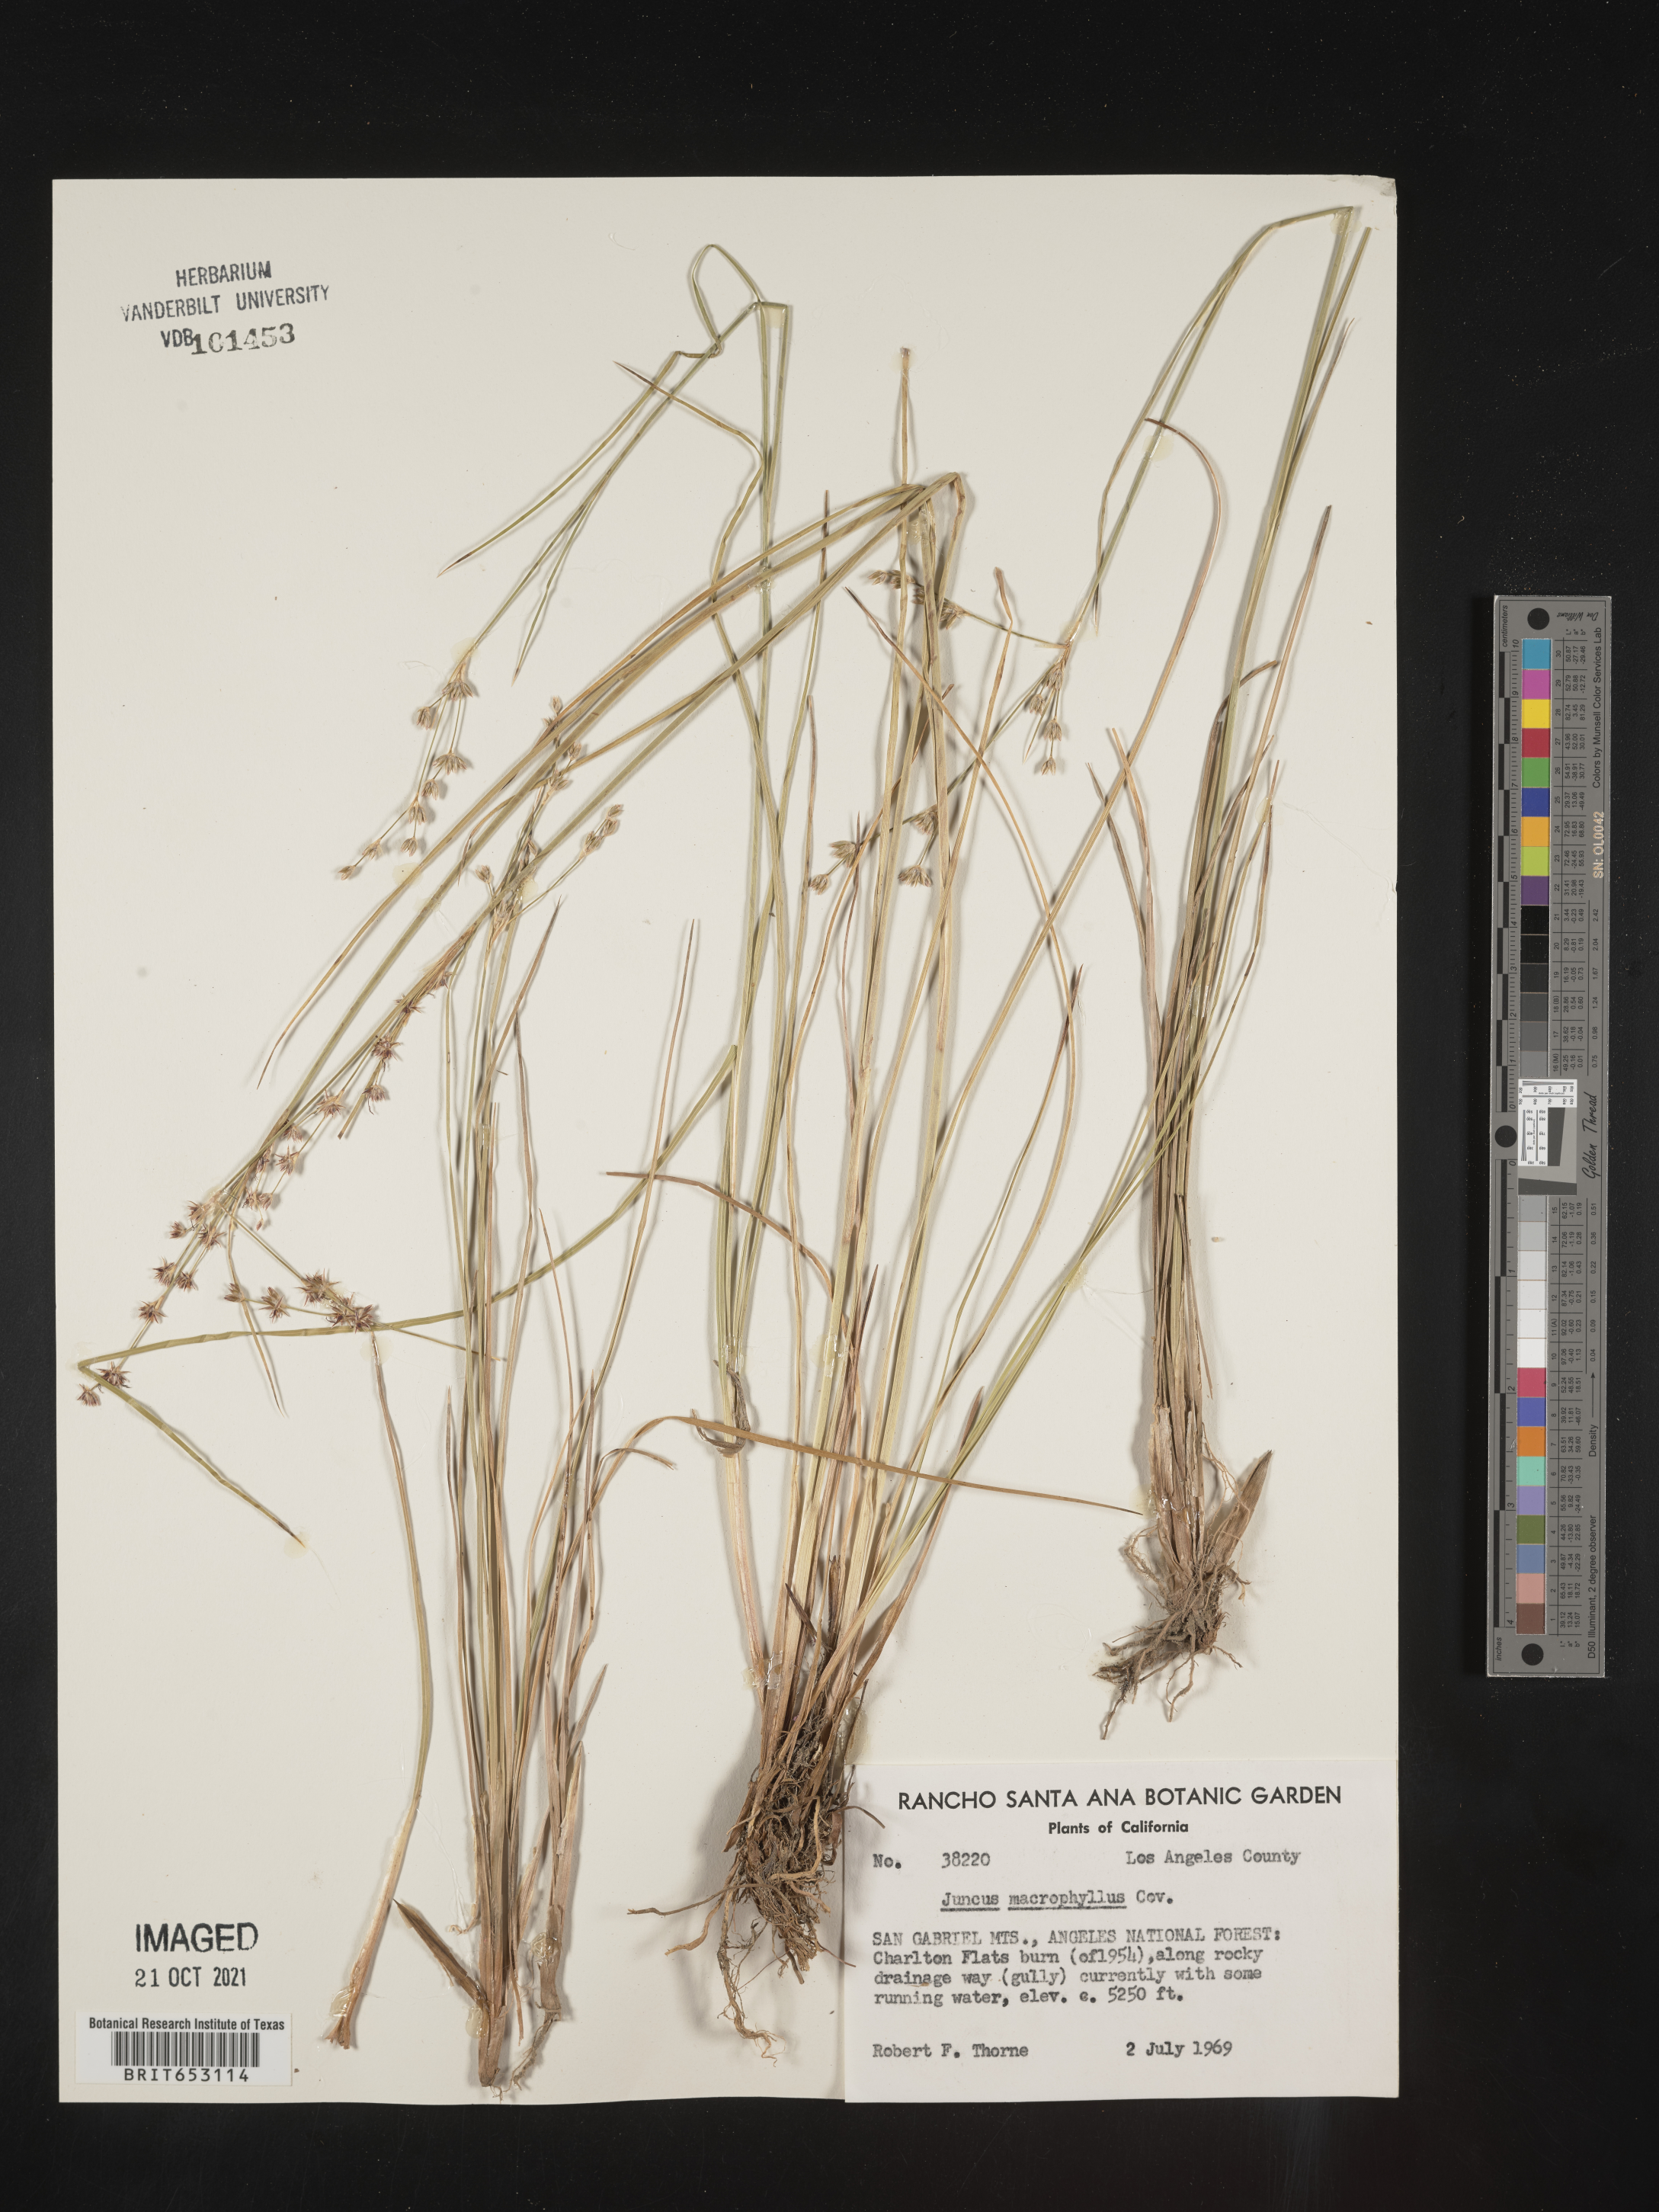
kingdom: Plantae
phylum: Tracheophyta
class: Liliopsida
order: Poales
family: Juncaceae
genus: Juncus
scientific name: Juncus macrophyllus
